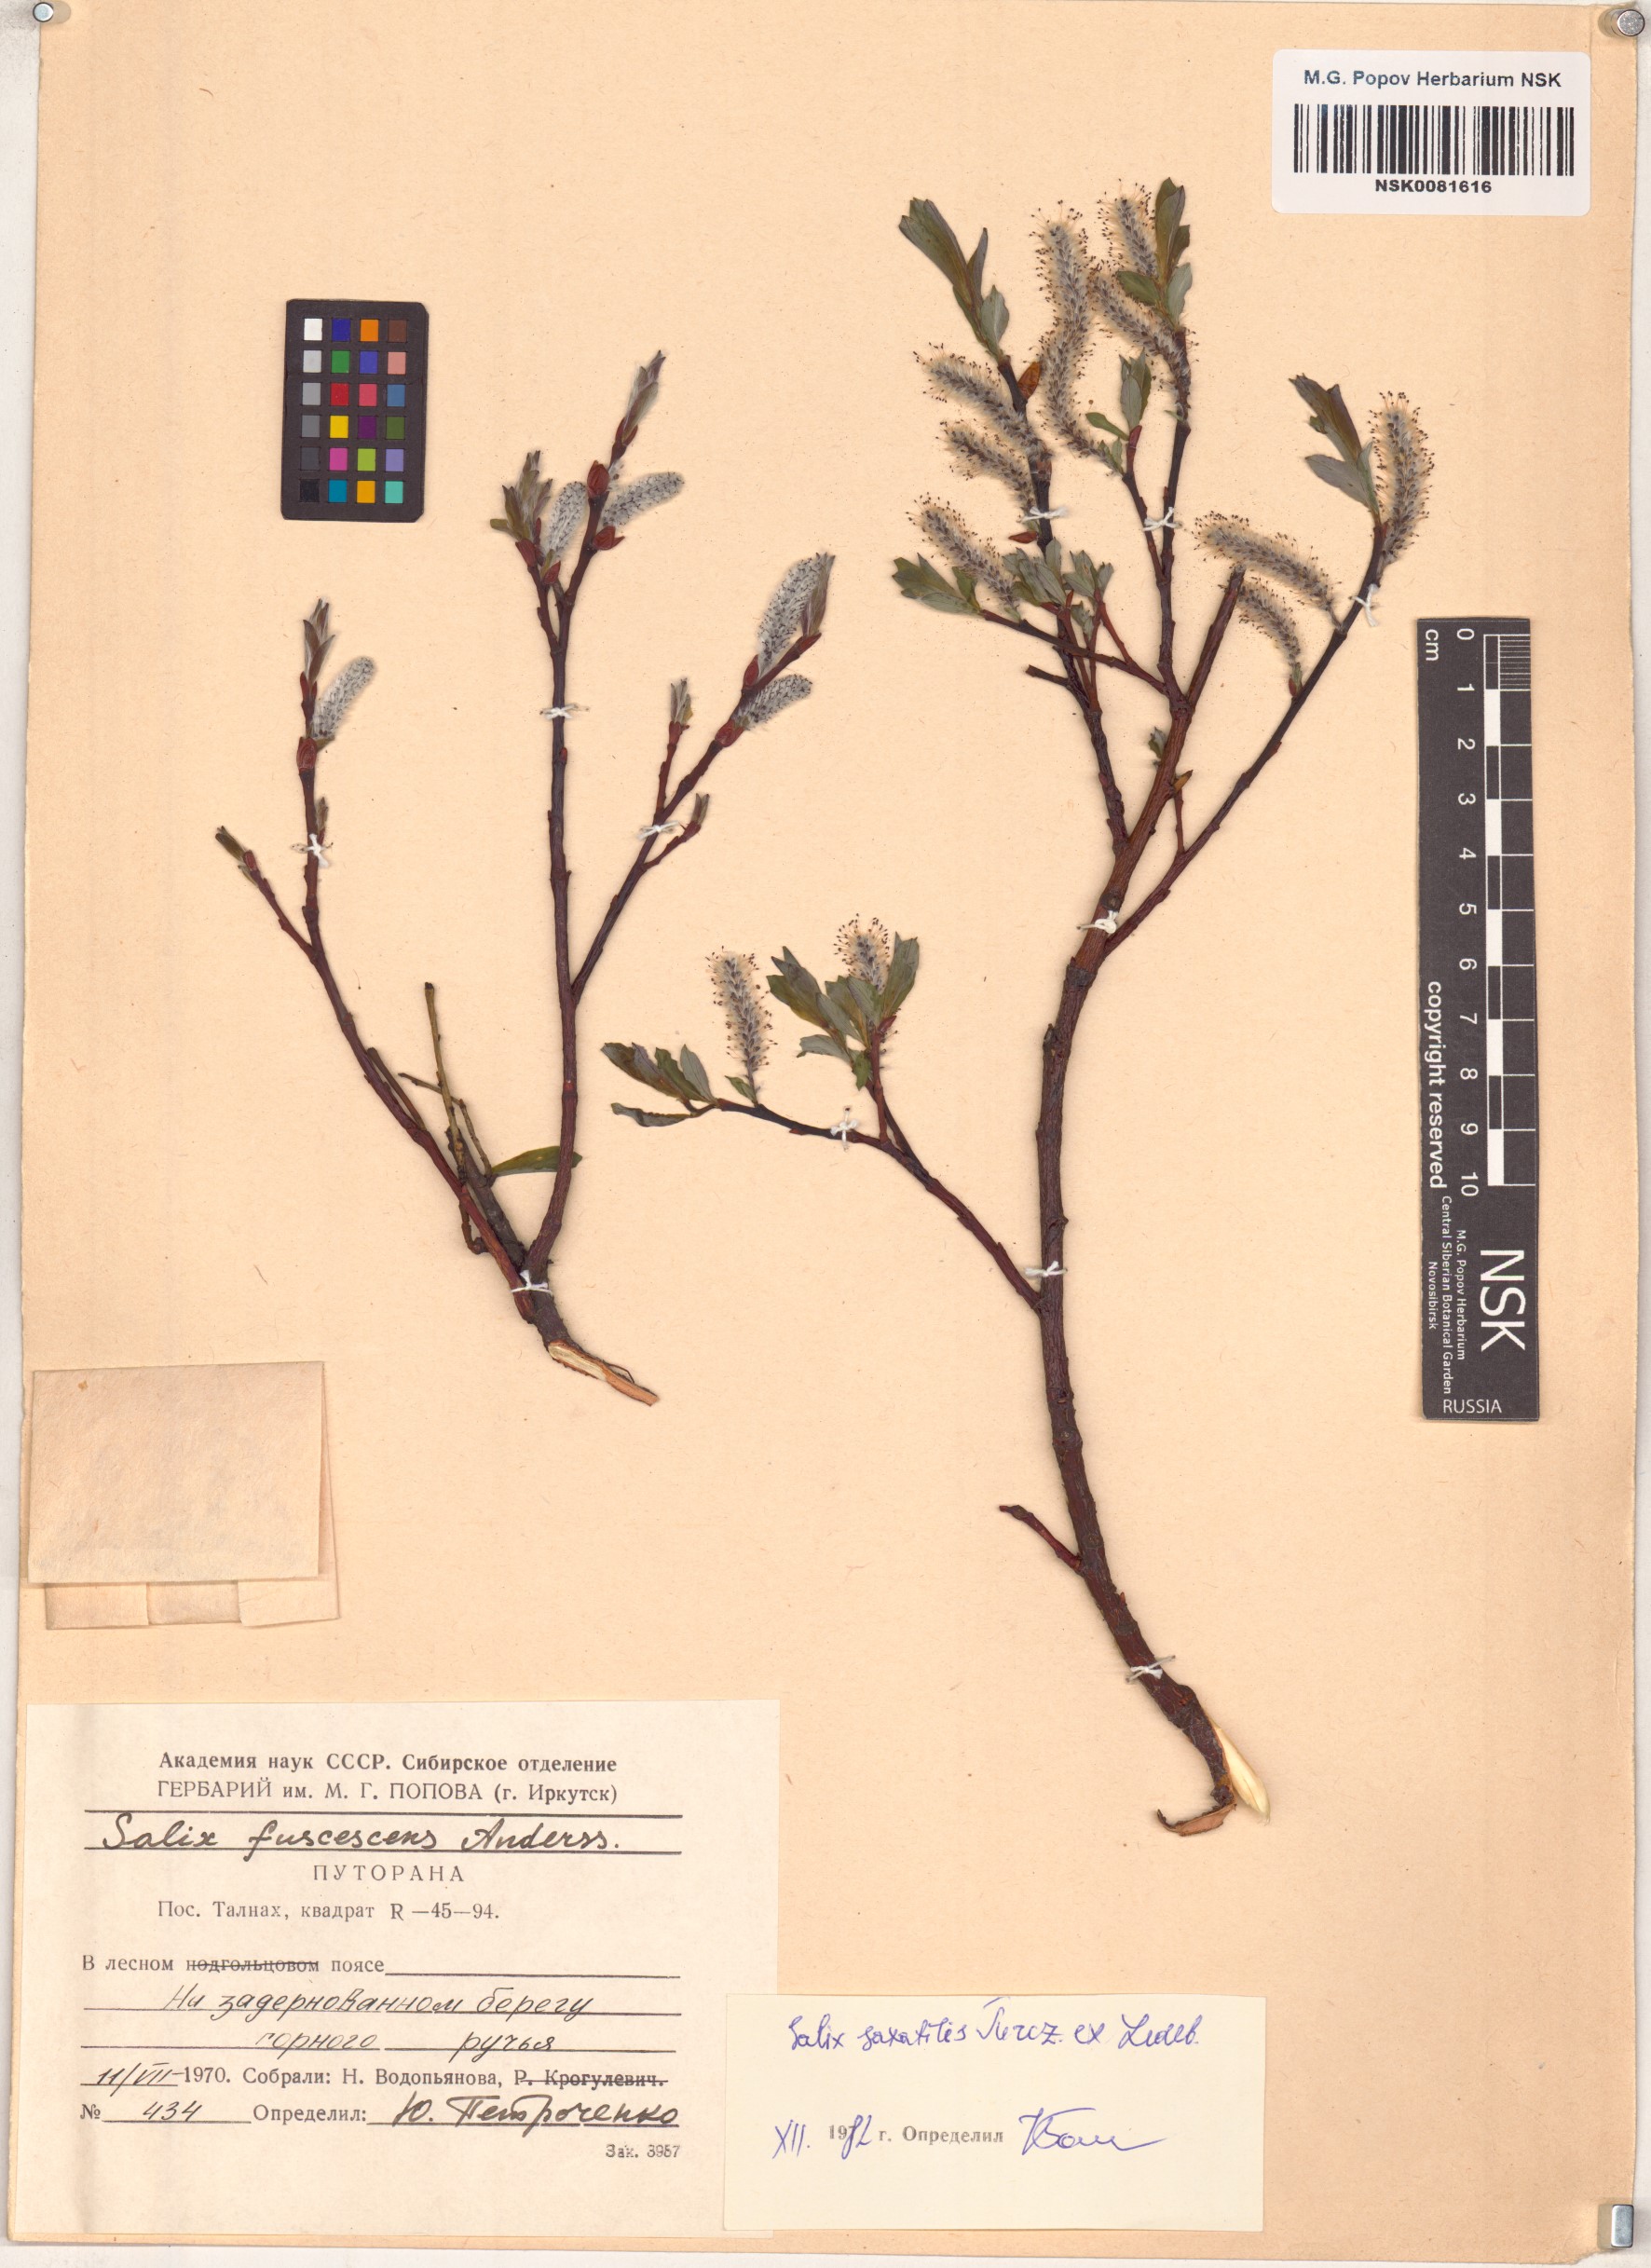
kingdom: Plantae
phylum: Tracheophyta
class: Magnoliopsida
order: Malpighiales
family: Salicaceae
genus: Salix
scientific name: Salix saxatilis
